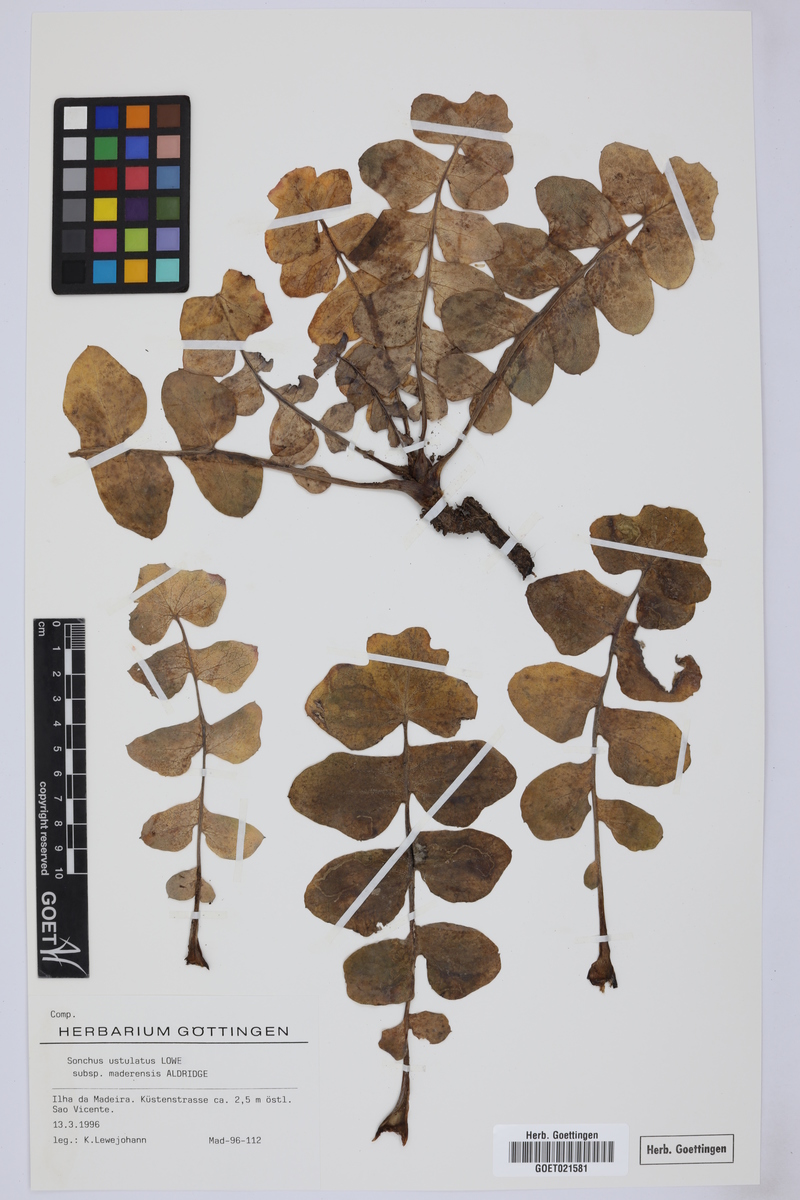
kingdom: Plantae
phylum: Tracheophyta
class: Magnoliopsida
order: Asterales
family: Asteraceae
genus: Sonchus
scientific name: Sonchus latifolius
